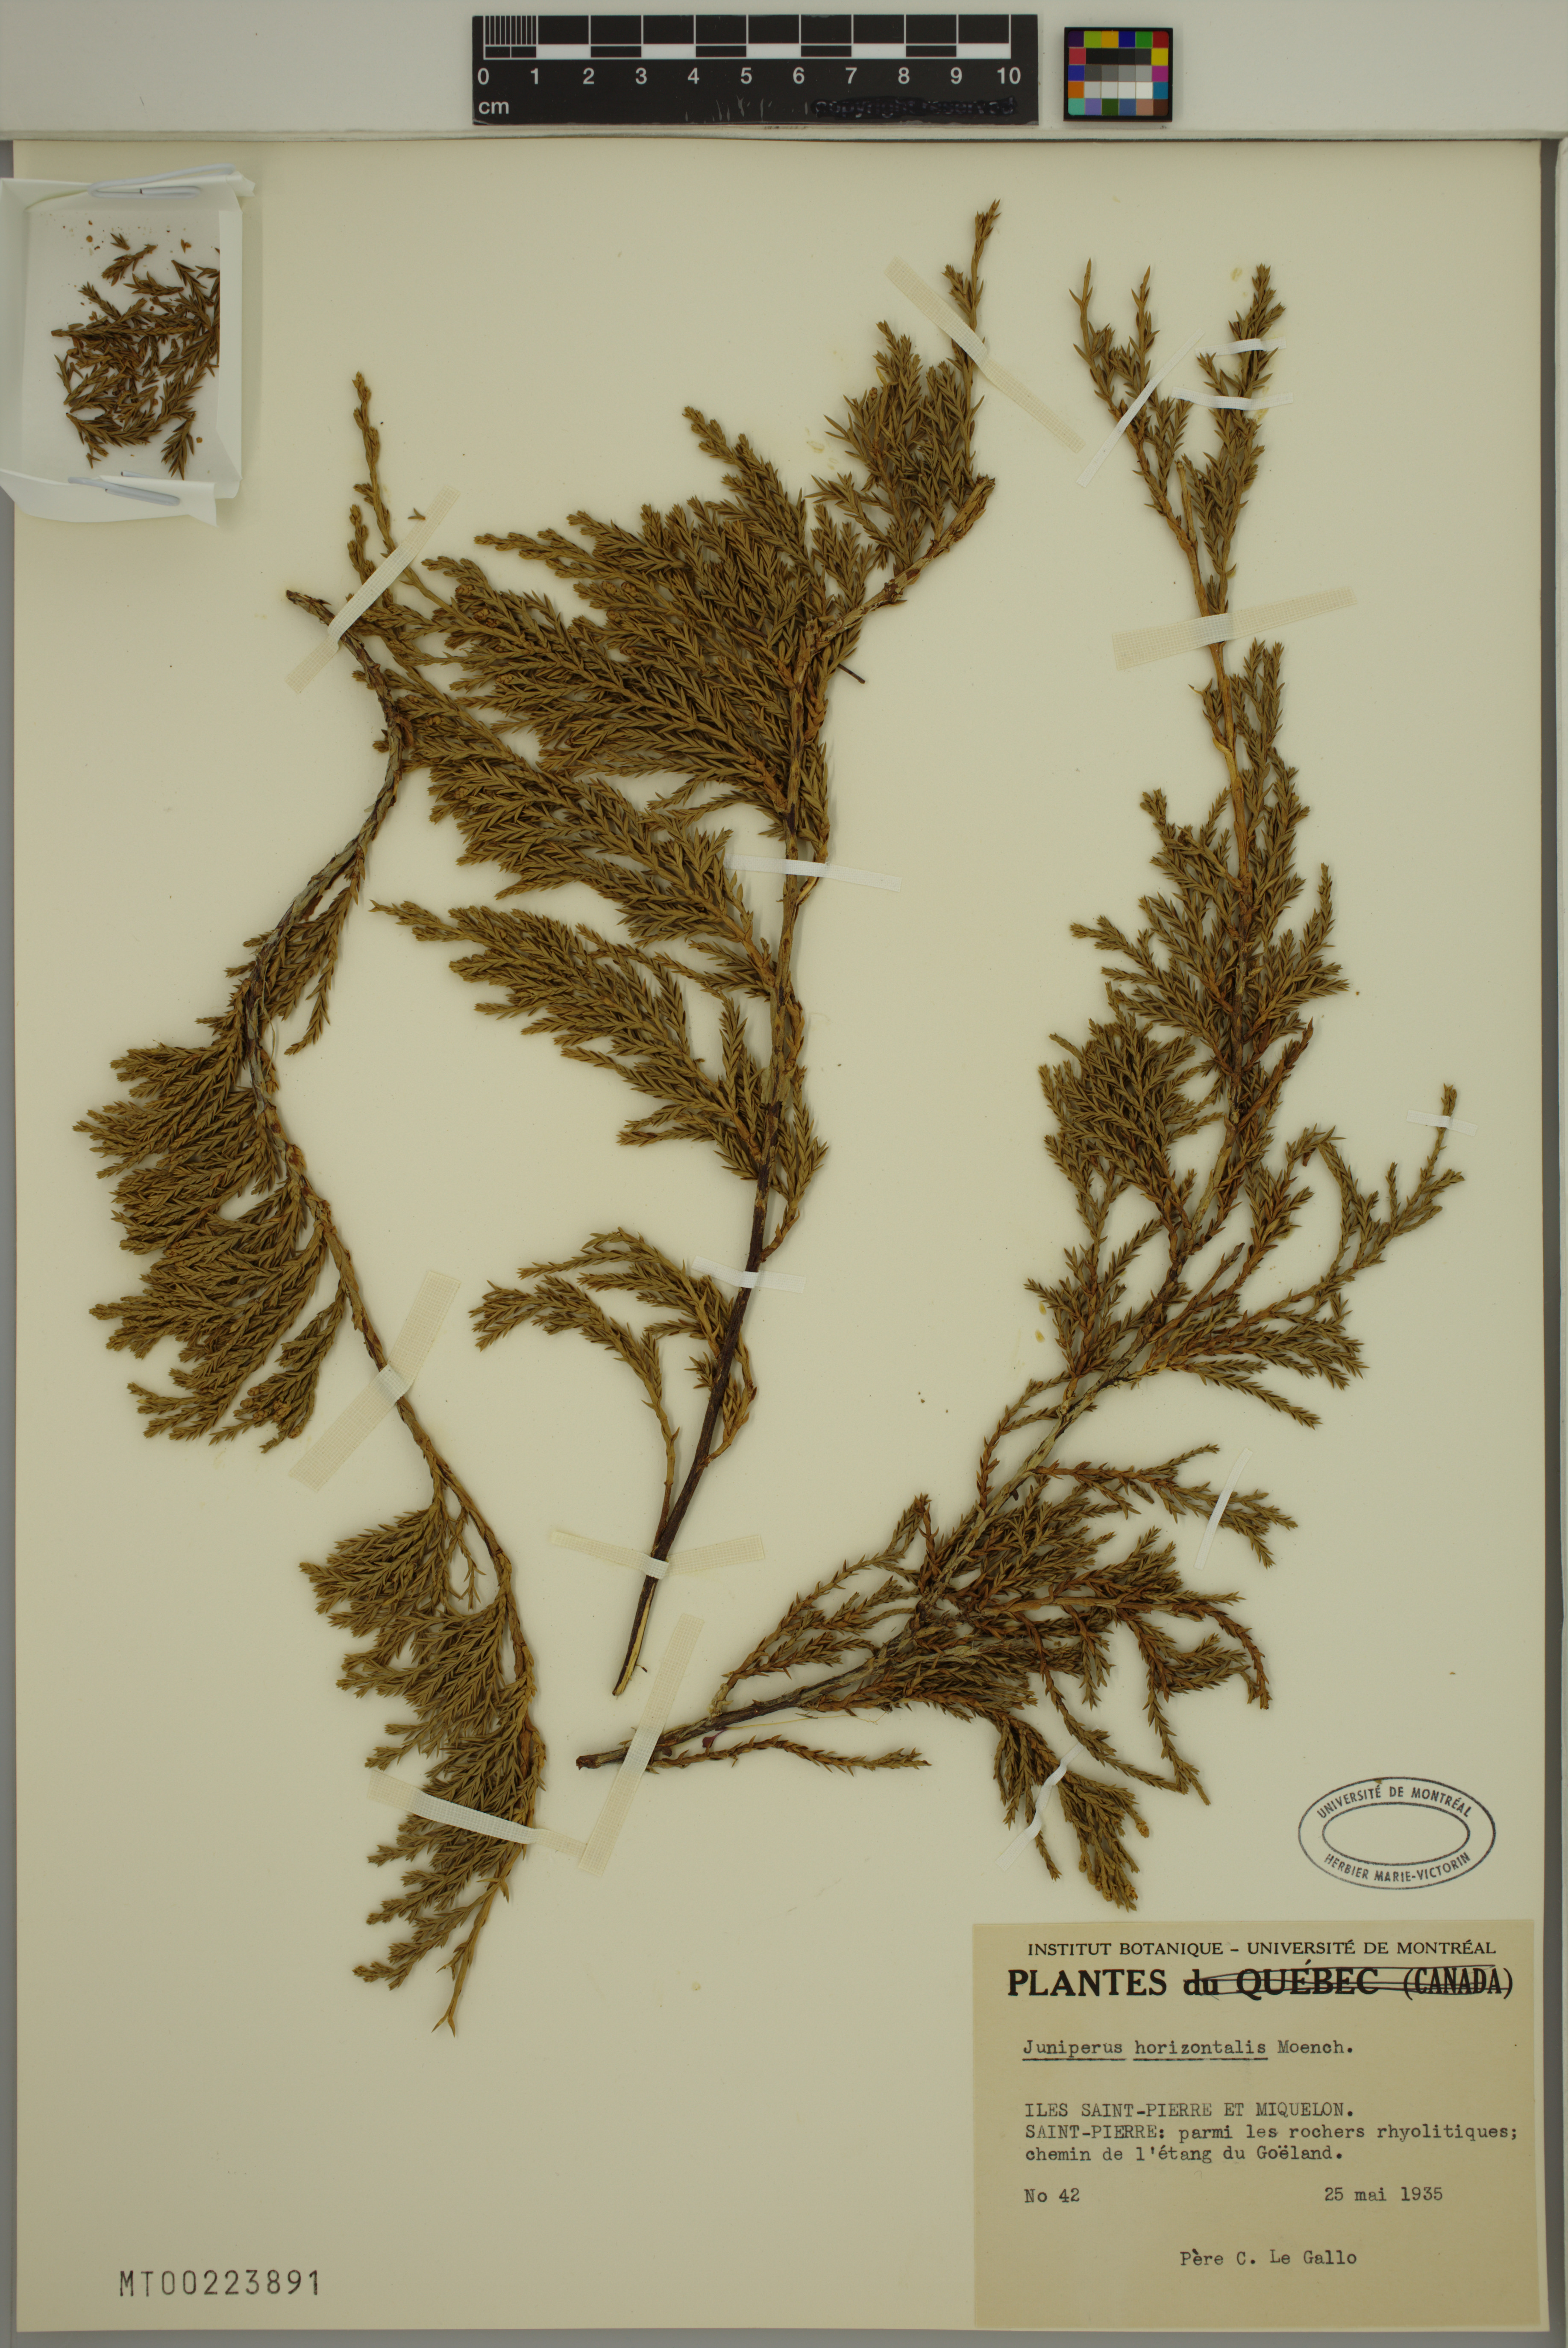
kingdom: Plantae
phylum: Tracheophyta
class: Pinopsida
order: Pinales
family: Cupressaceae
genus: Juniperus
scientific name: Juniperus horizontalis
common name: Creeping juniper
